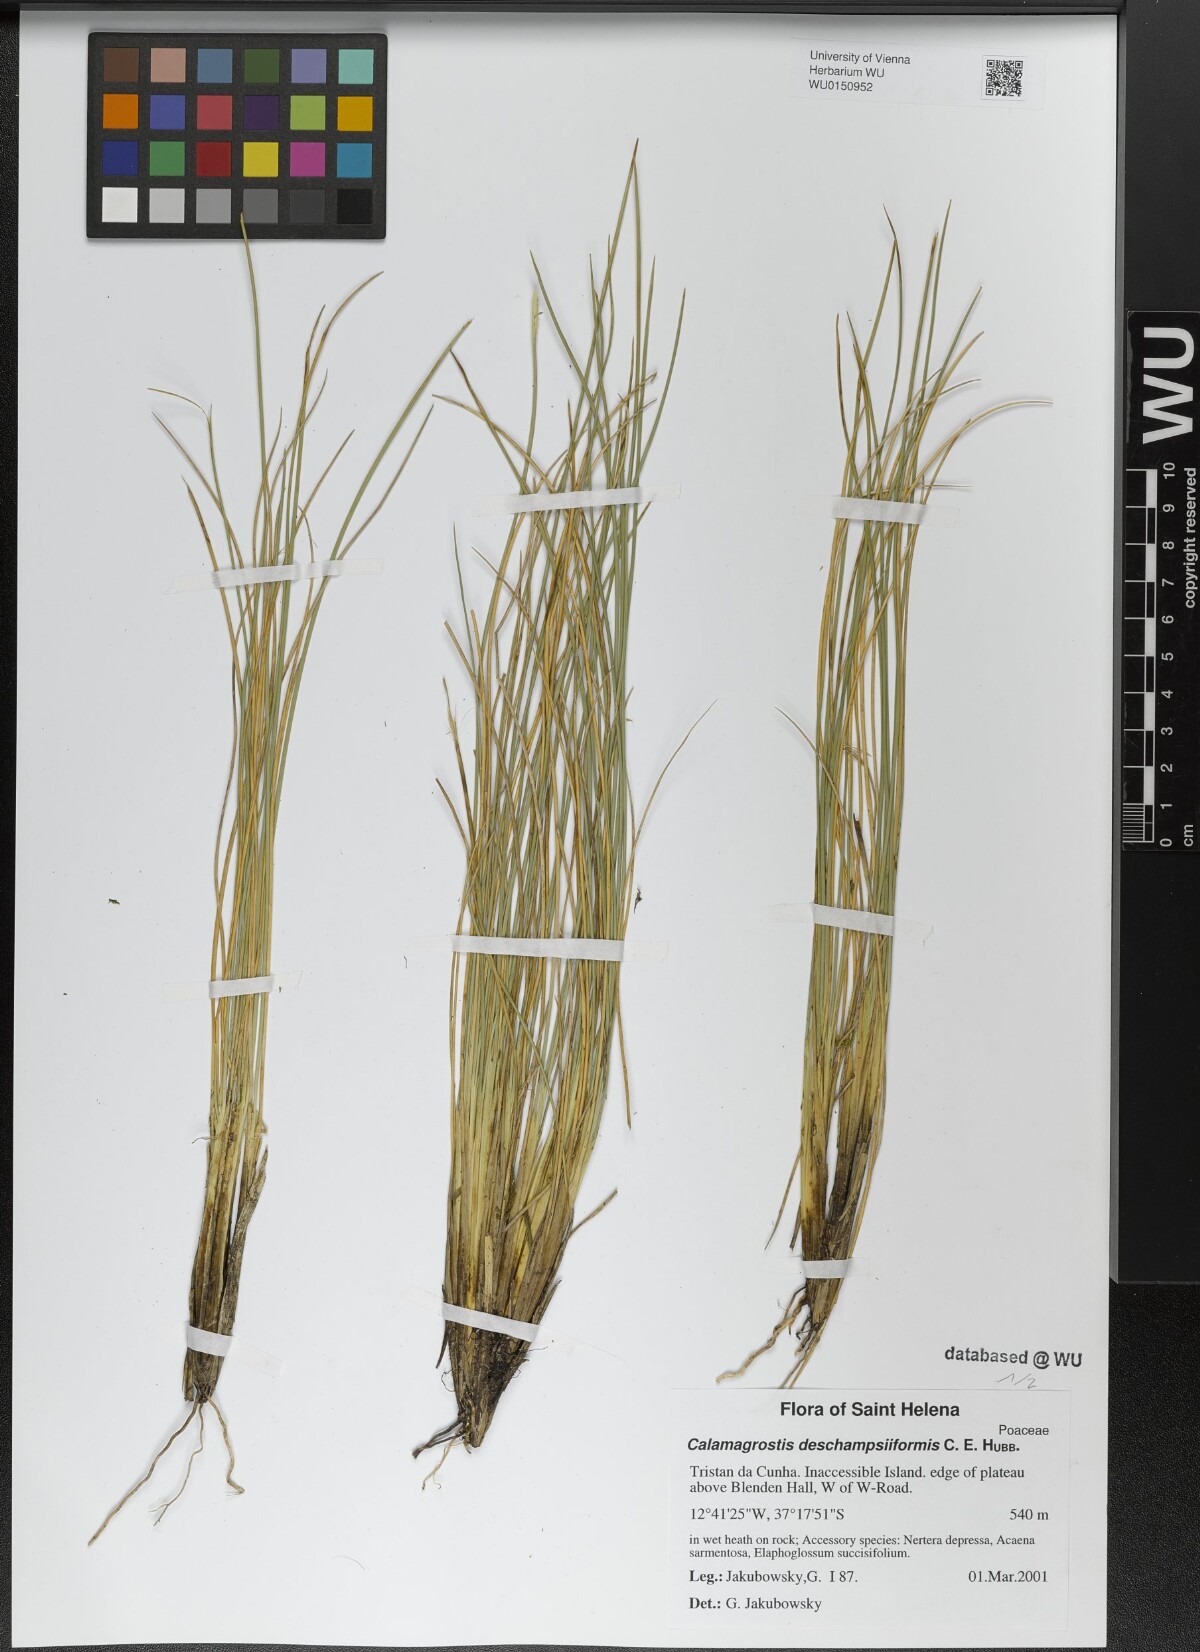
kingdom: Plantae
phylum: Tracheophyta
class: Liliopsida
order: Poales
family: Poaceae
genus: Calamagrostis
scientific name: Calamagrostis deschampsiiformis
